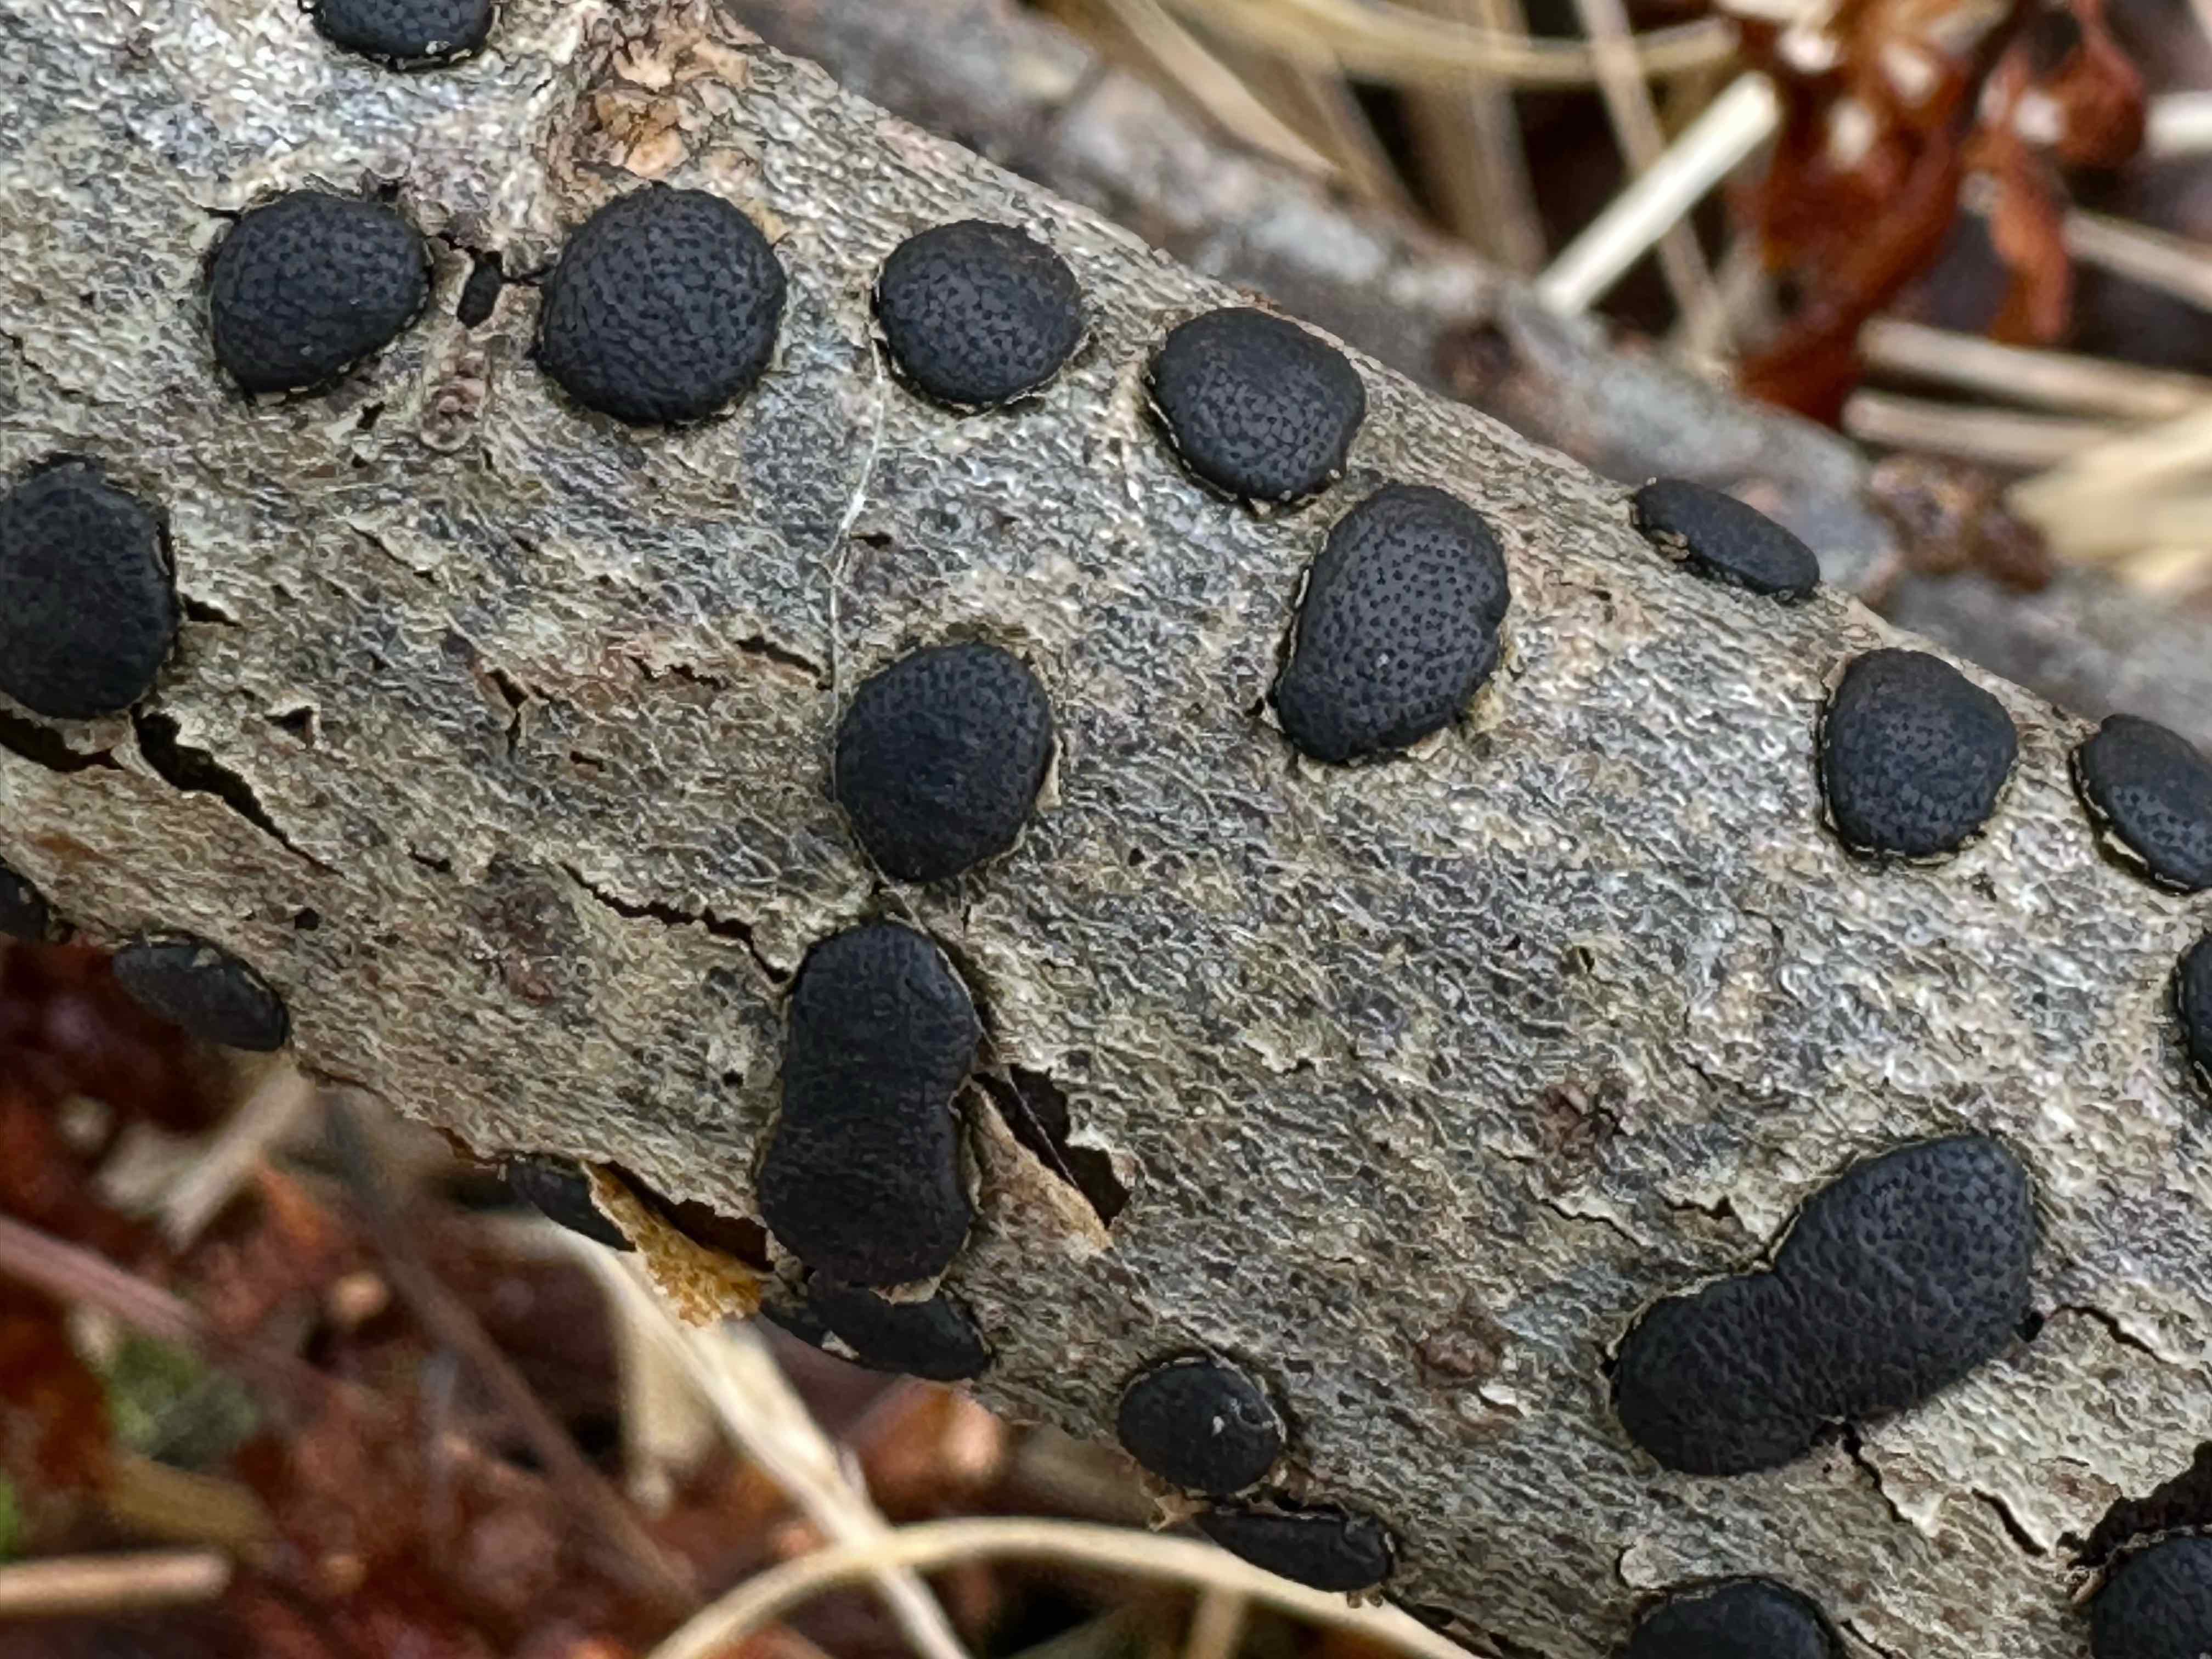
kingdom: Fungi
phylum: Ascomycota
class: Sordariomycetes
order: Xylariales
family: Diatrypaceae
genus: Diatrype
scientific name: Diatrype bullata
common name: pile-kulskorpe
